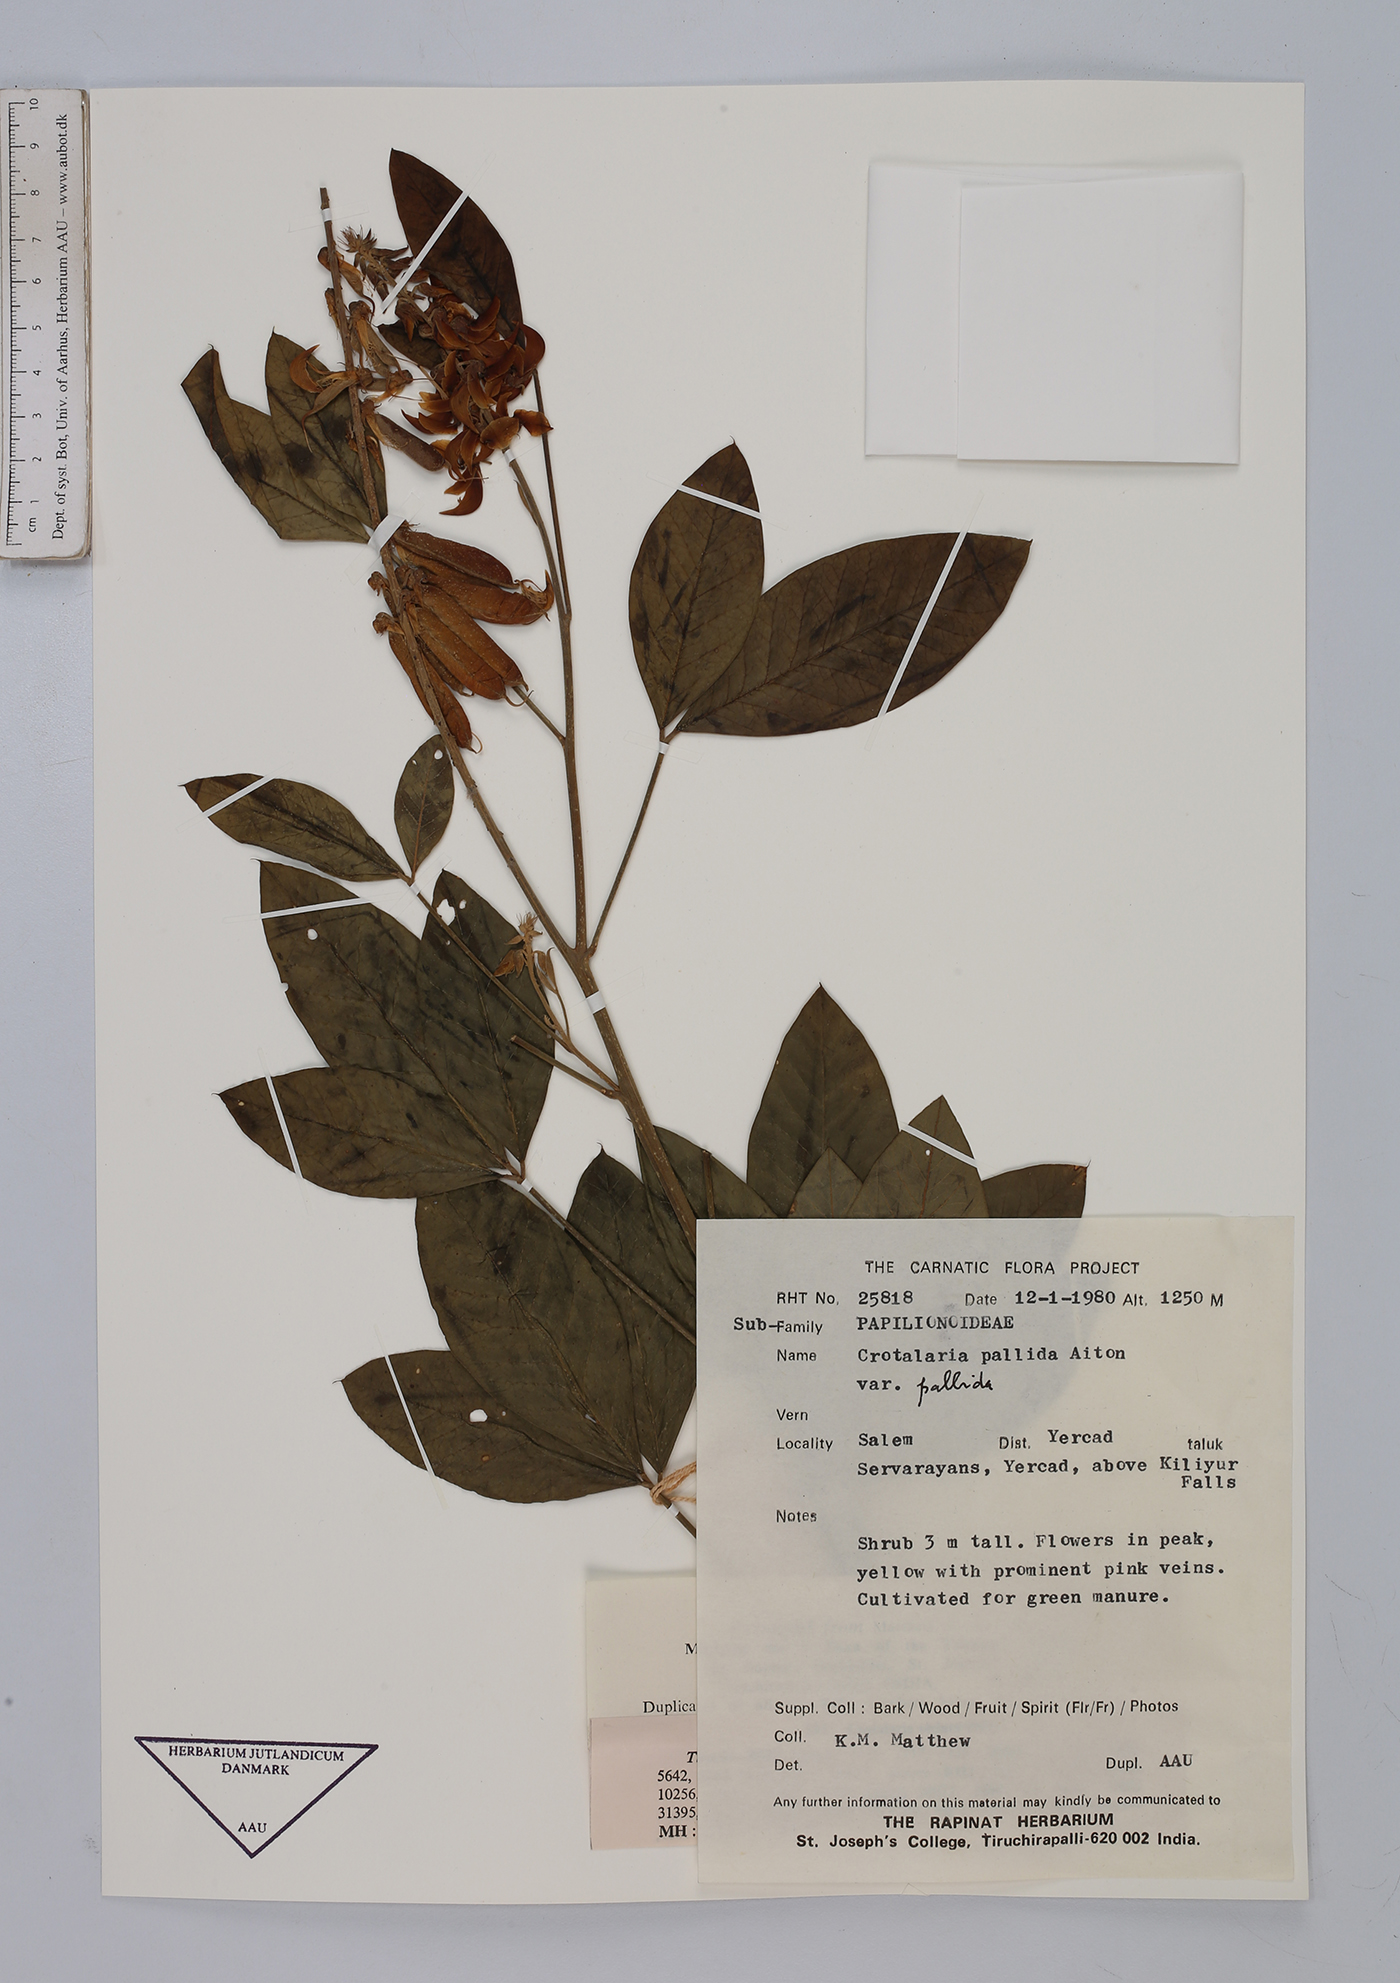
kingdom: Plantae
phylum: Tracheophyta
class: Magnoliopsida
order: Fabales
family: Fabaceae
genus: Crotalaria
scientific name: Crotalaria pallida
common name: Smooth rattlebox
